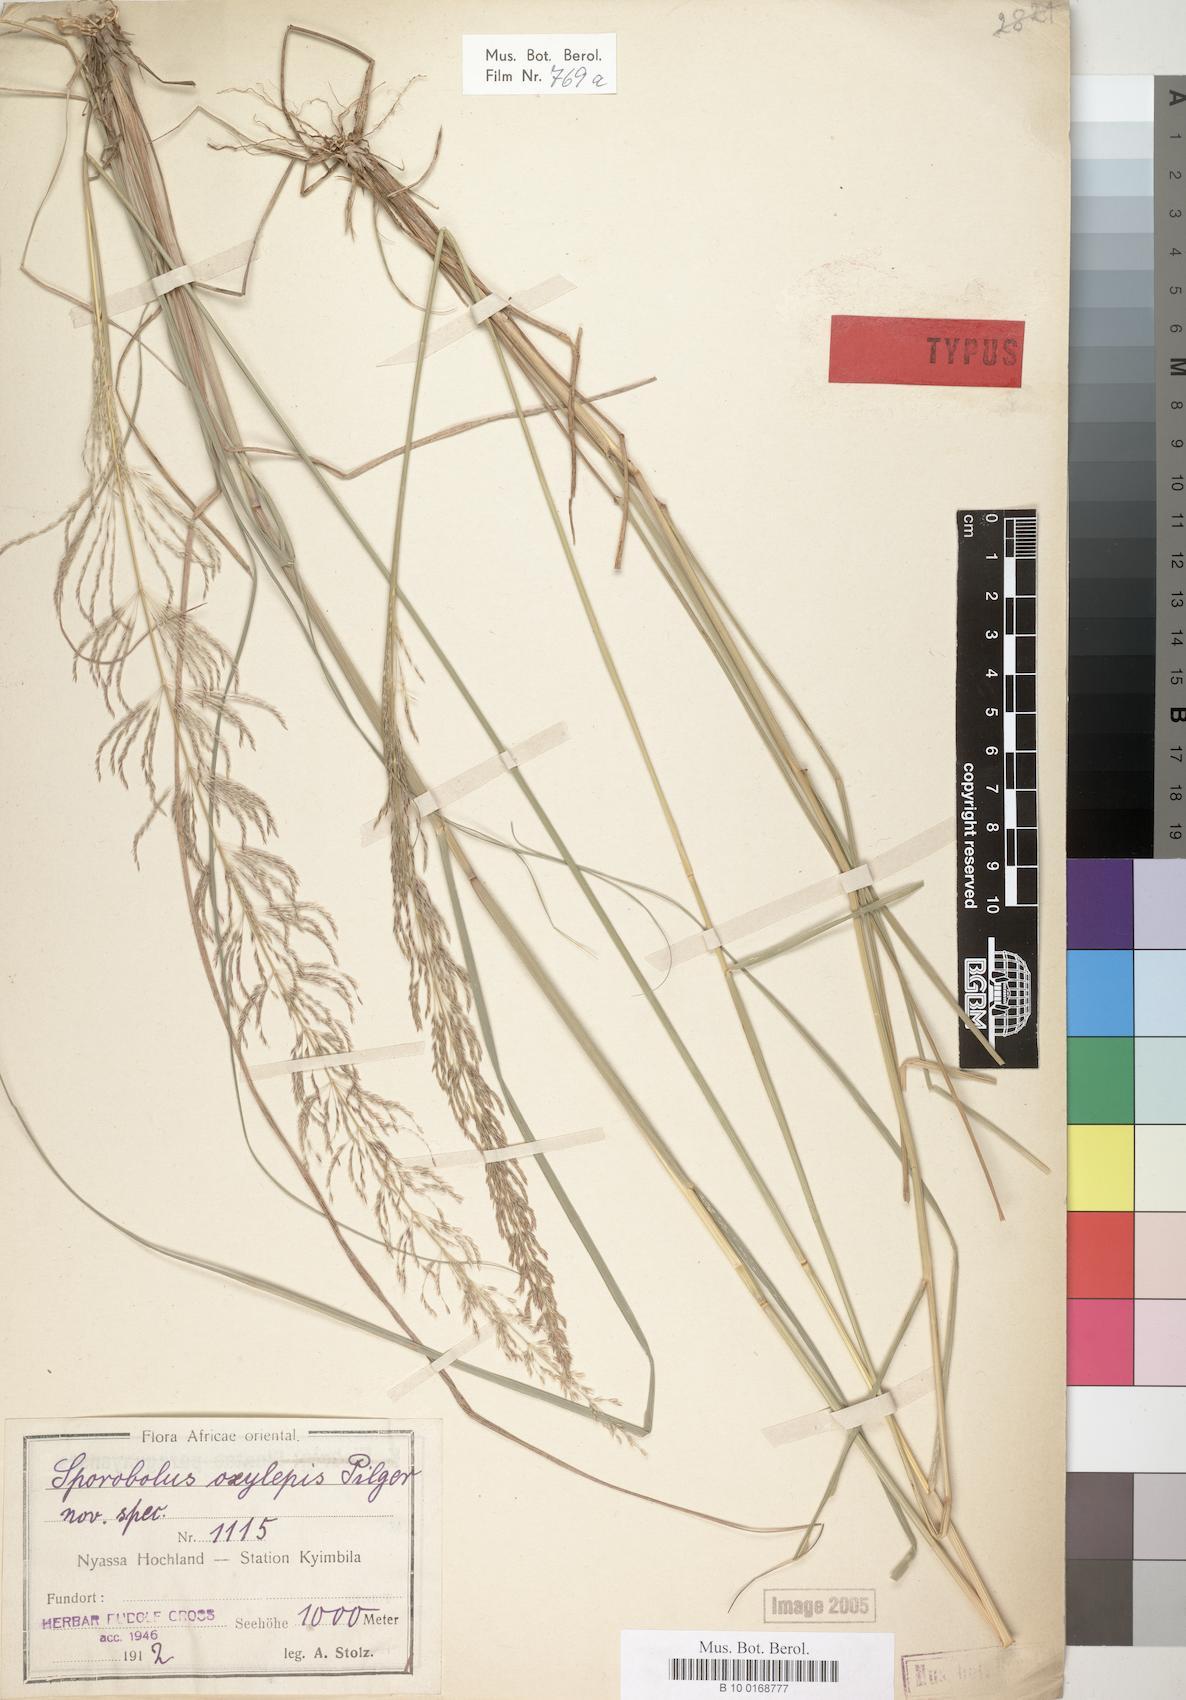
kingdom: Plantae
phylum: Tracheophyta
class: Liliopsida
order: Poales
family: Poaceae
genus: Sporobolus
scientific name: Sporobolus sanguineus
